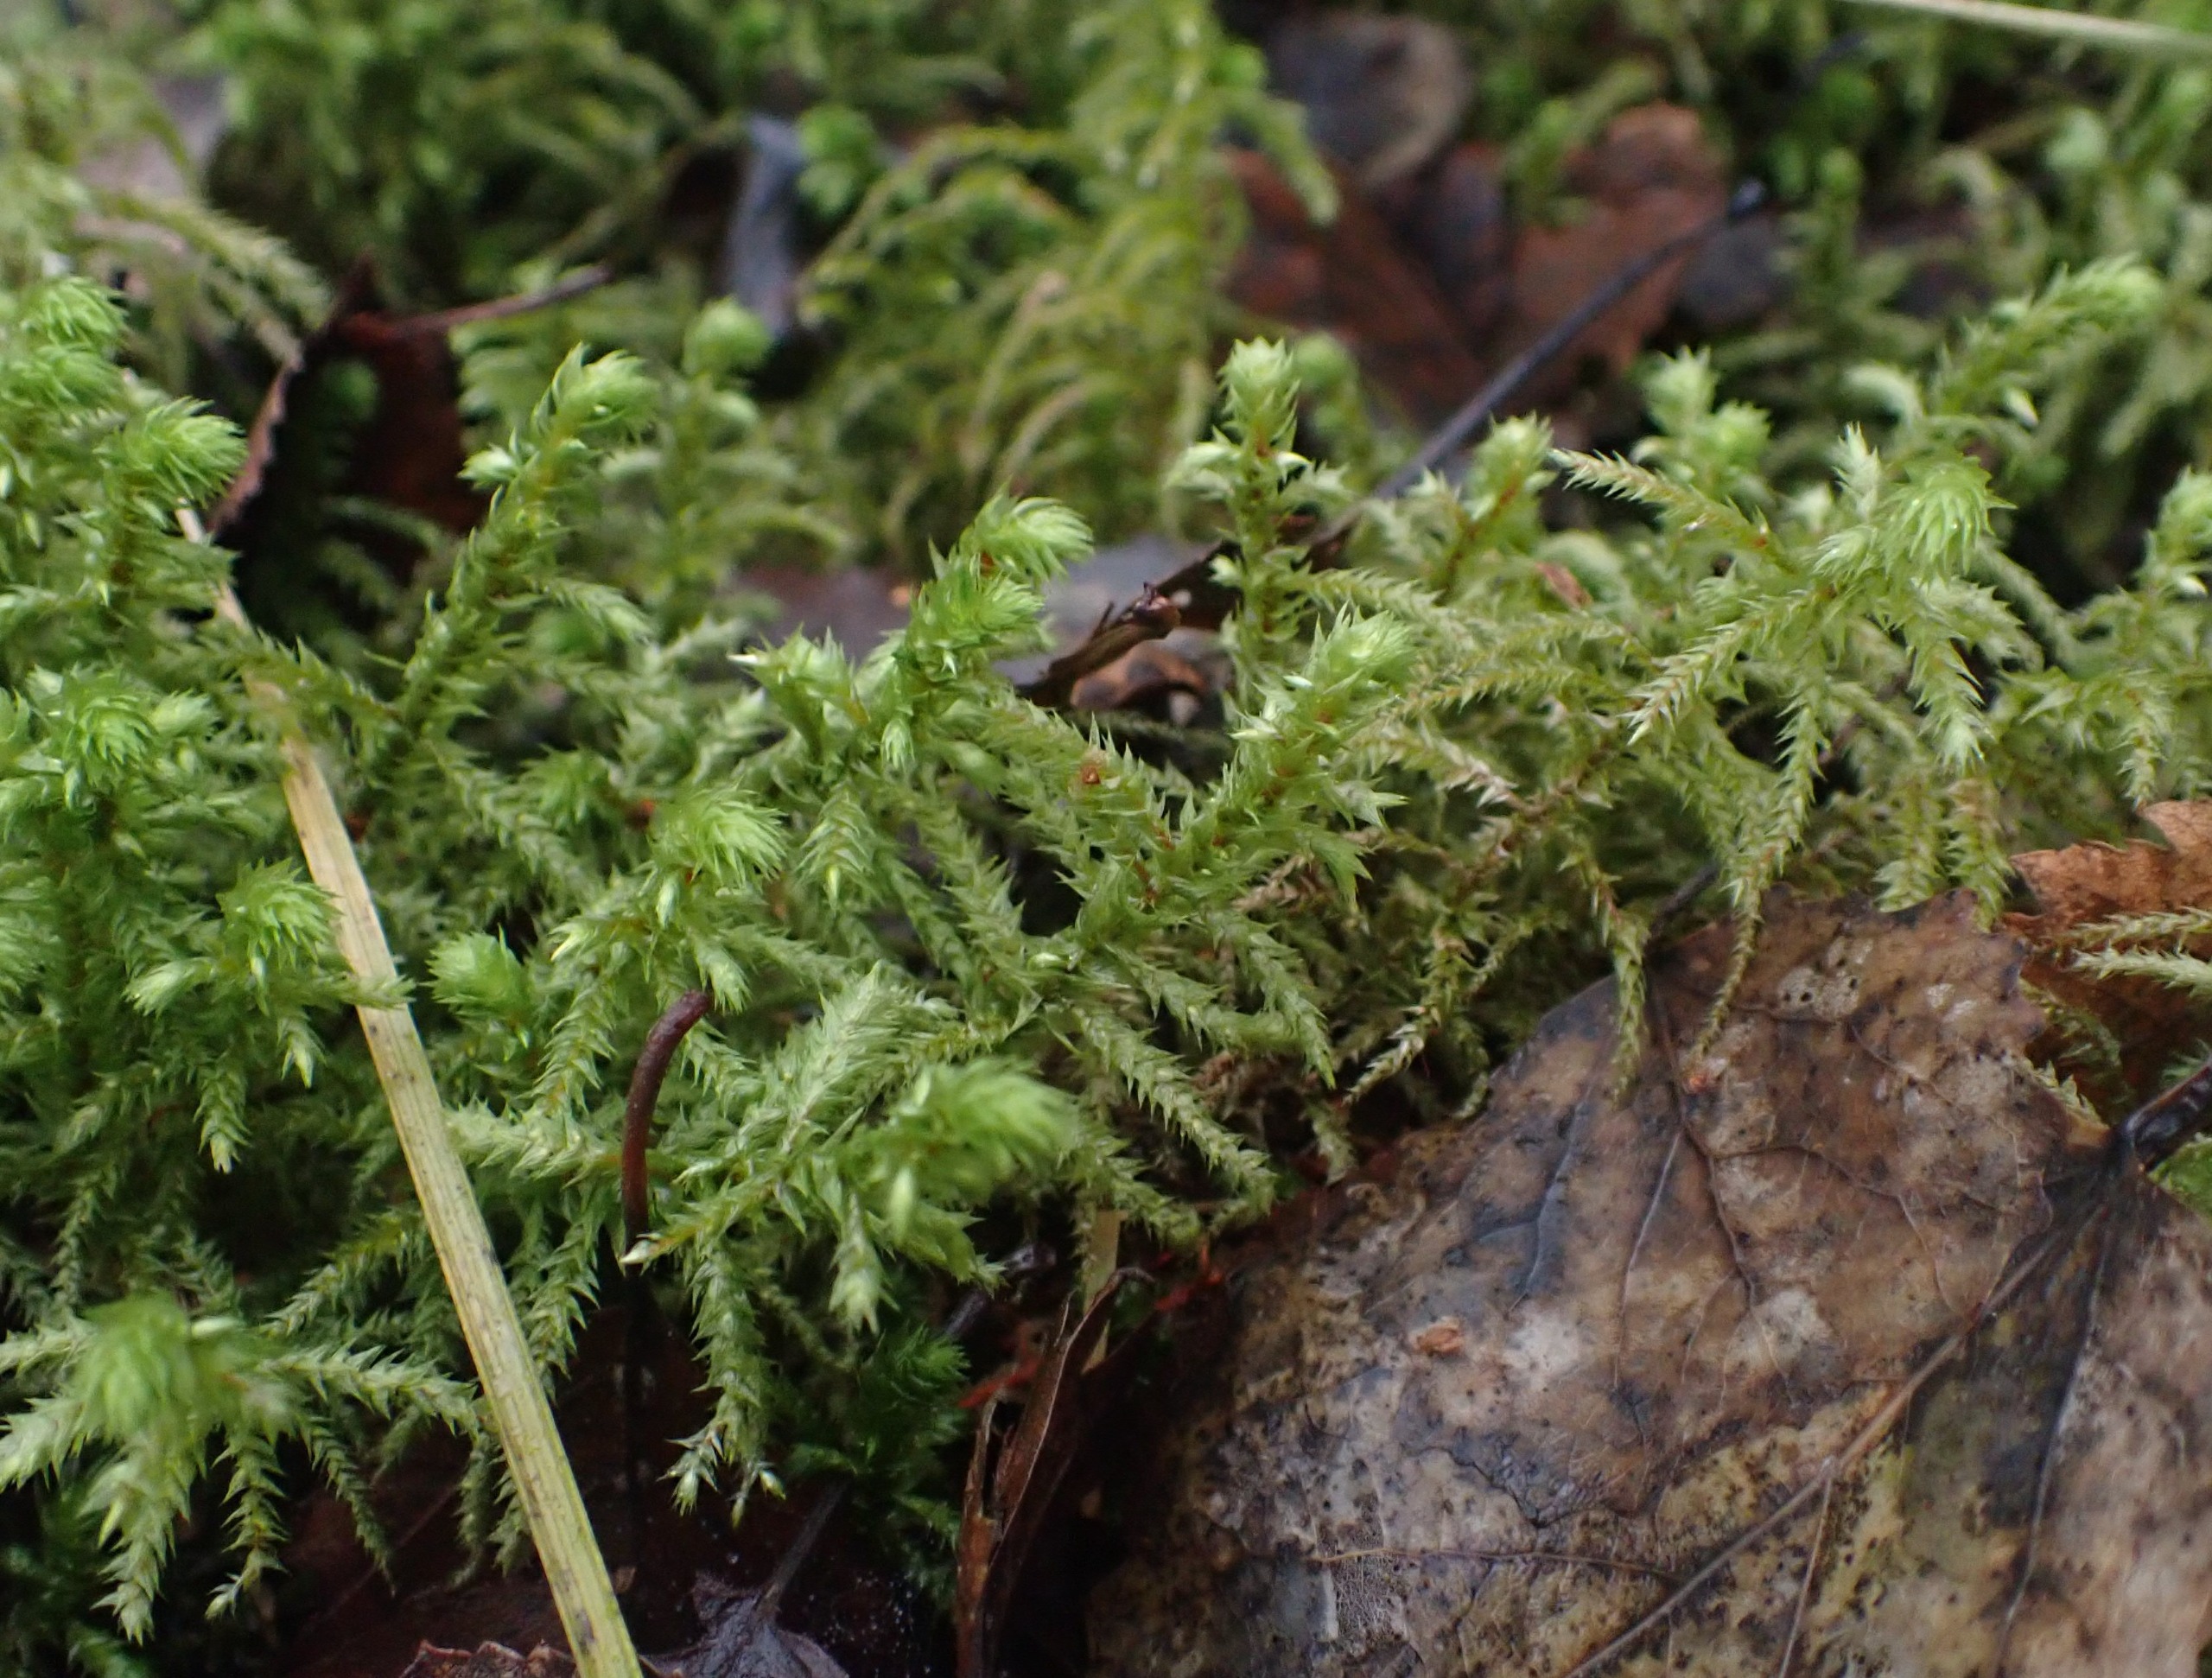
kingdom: Plantae
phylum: Bryophyta
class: Bryopsida
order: Hypnales
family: Hylocomiaceae
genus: Hylocomiadelphus
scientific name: Hylocomiadelphus triquetrus
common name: Stor kransemos
